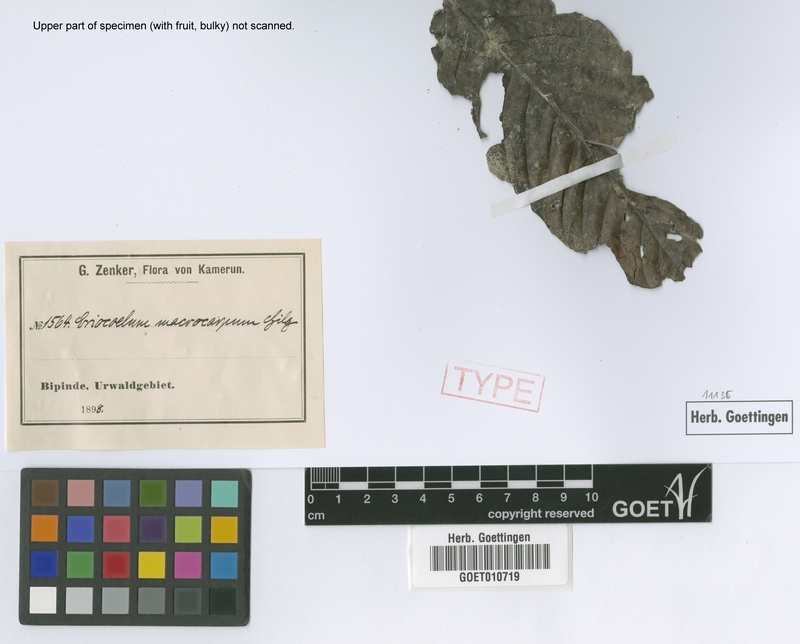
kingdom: Plantae
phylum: Tracheophyta
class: Magnoliopsida
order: Sapindales
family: Sapindaceae
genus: Eriocoelum
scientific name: Eriocoelum macrocarpum
